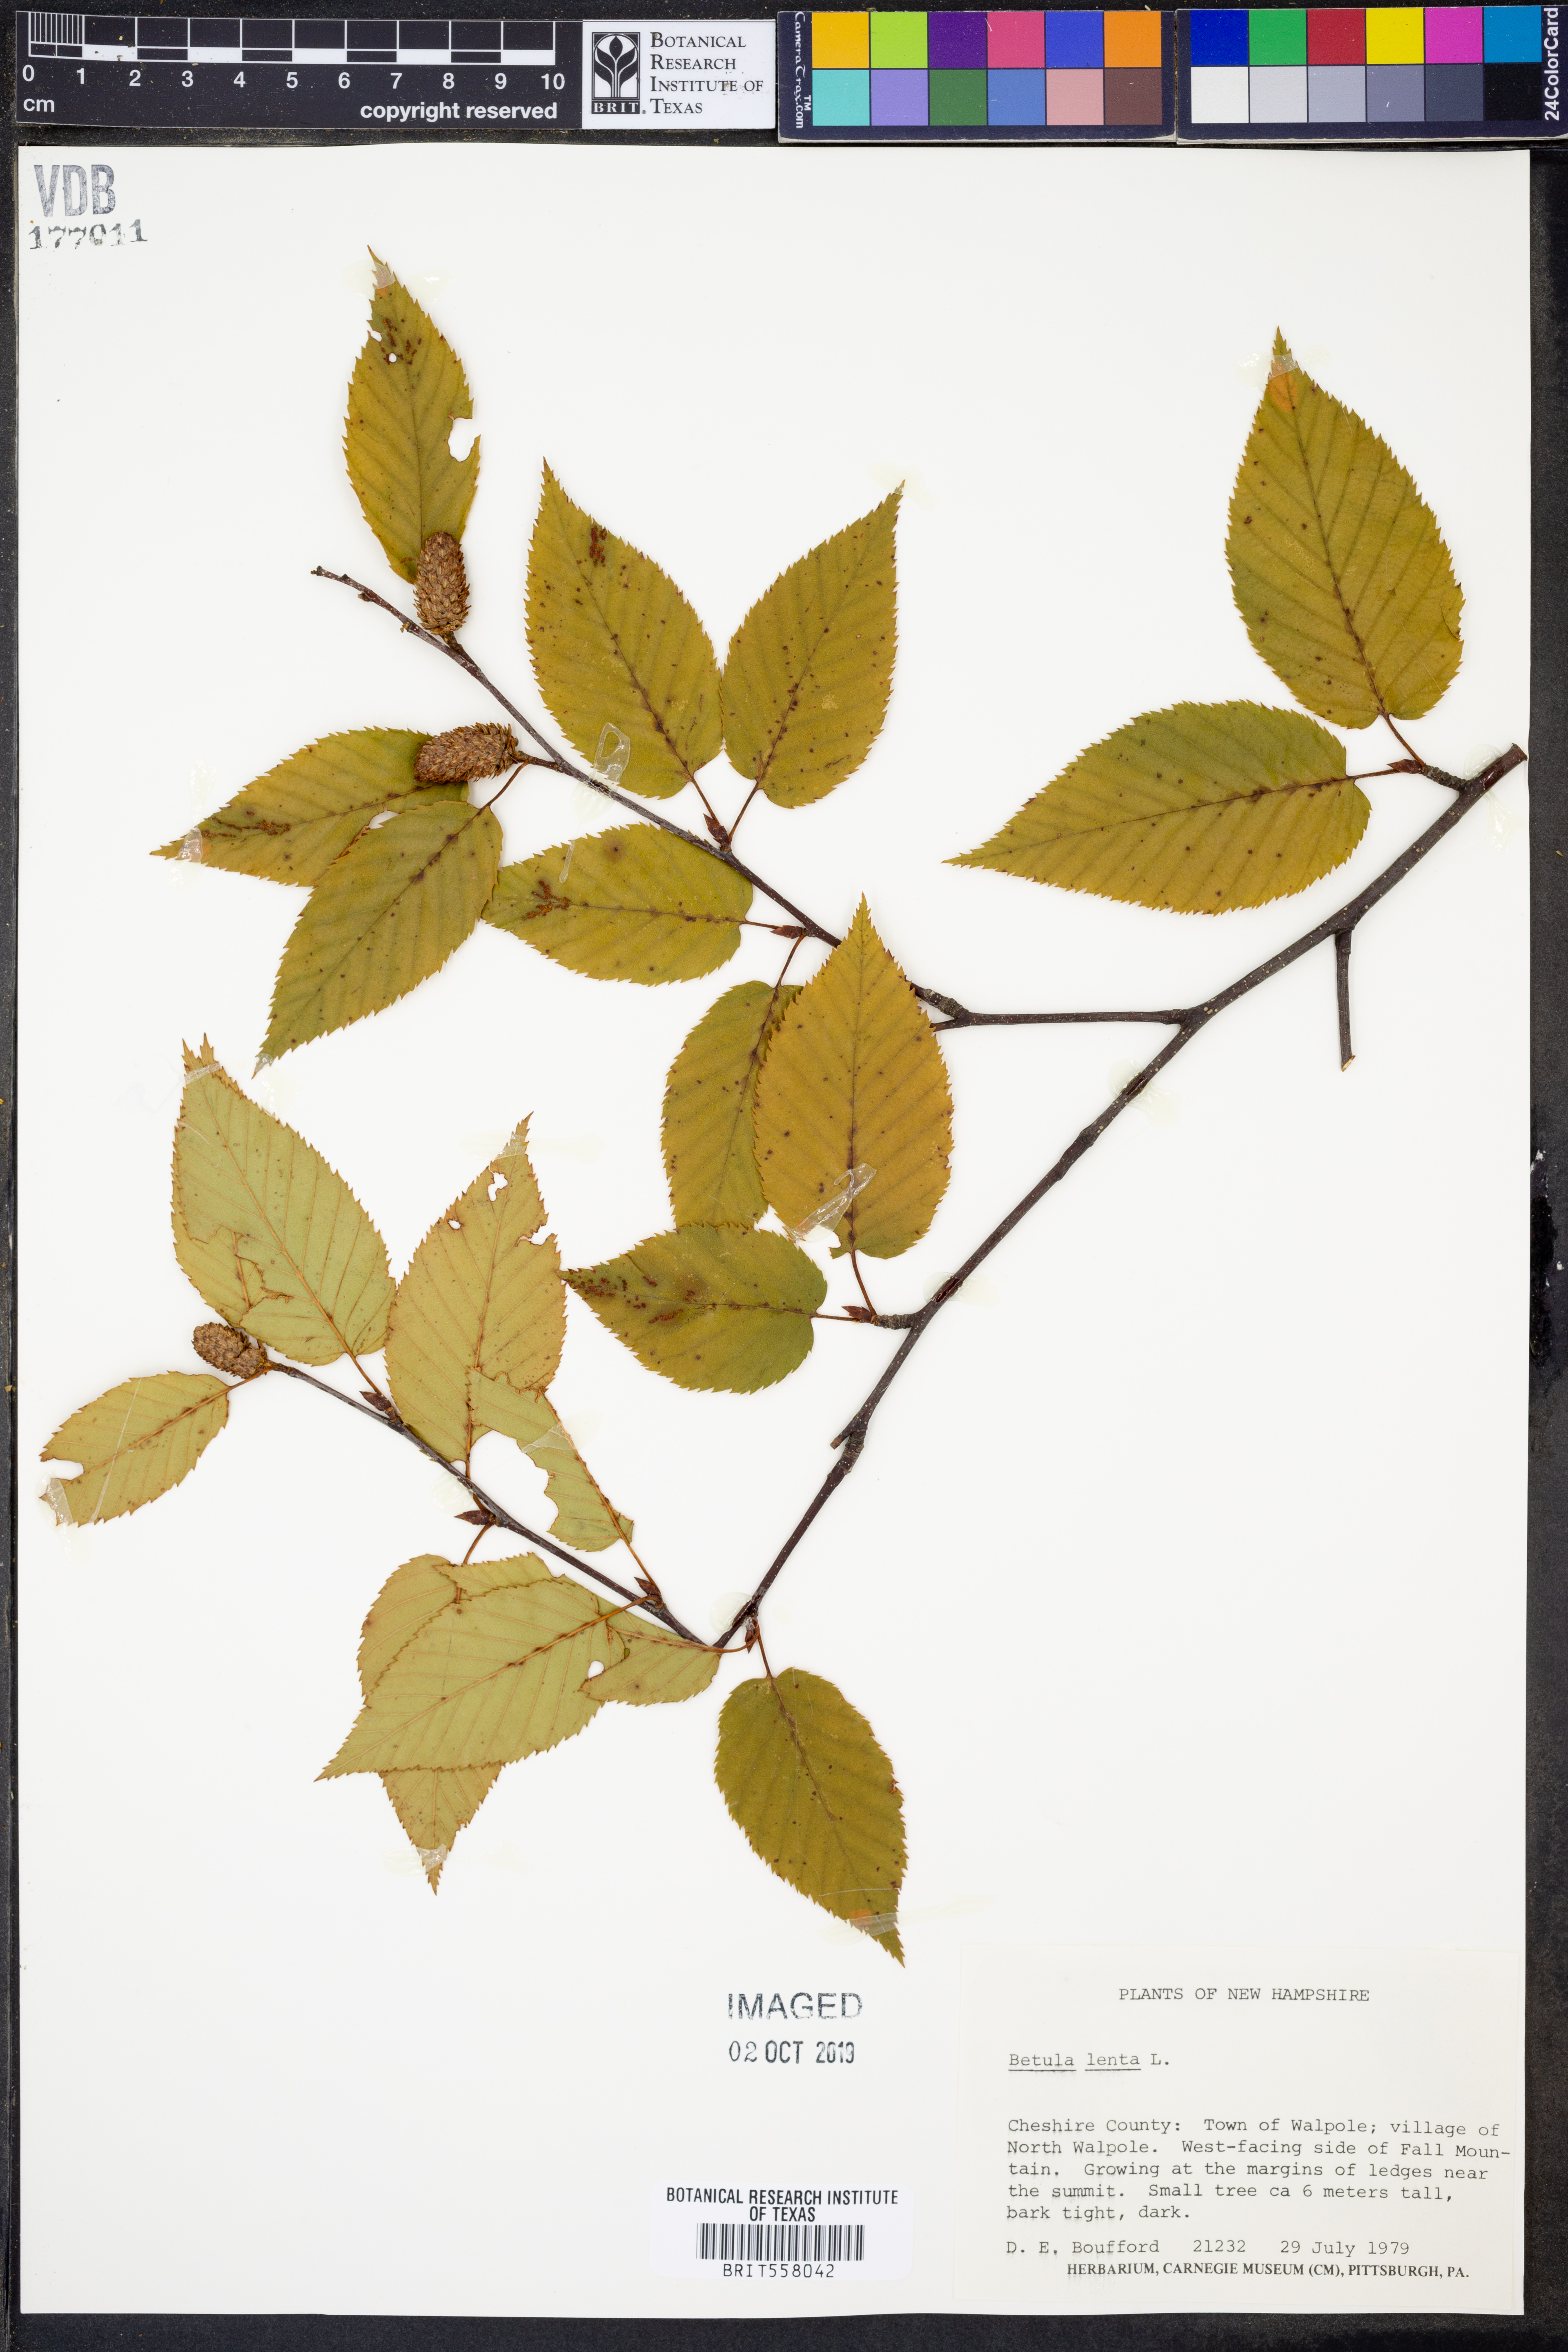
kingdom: Plantae
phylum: Tracheophyta
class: Magnoliopsida
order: Fagales
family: Betulaceae
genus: Betula
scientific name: Betula lenta
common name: Black birch
